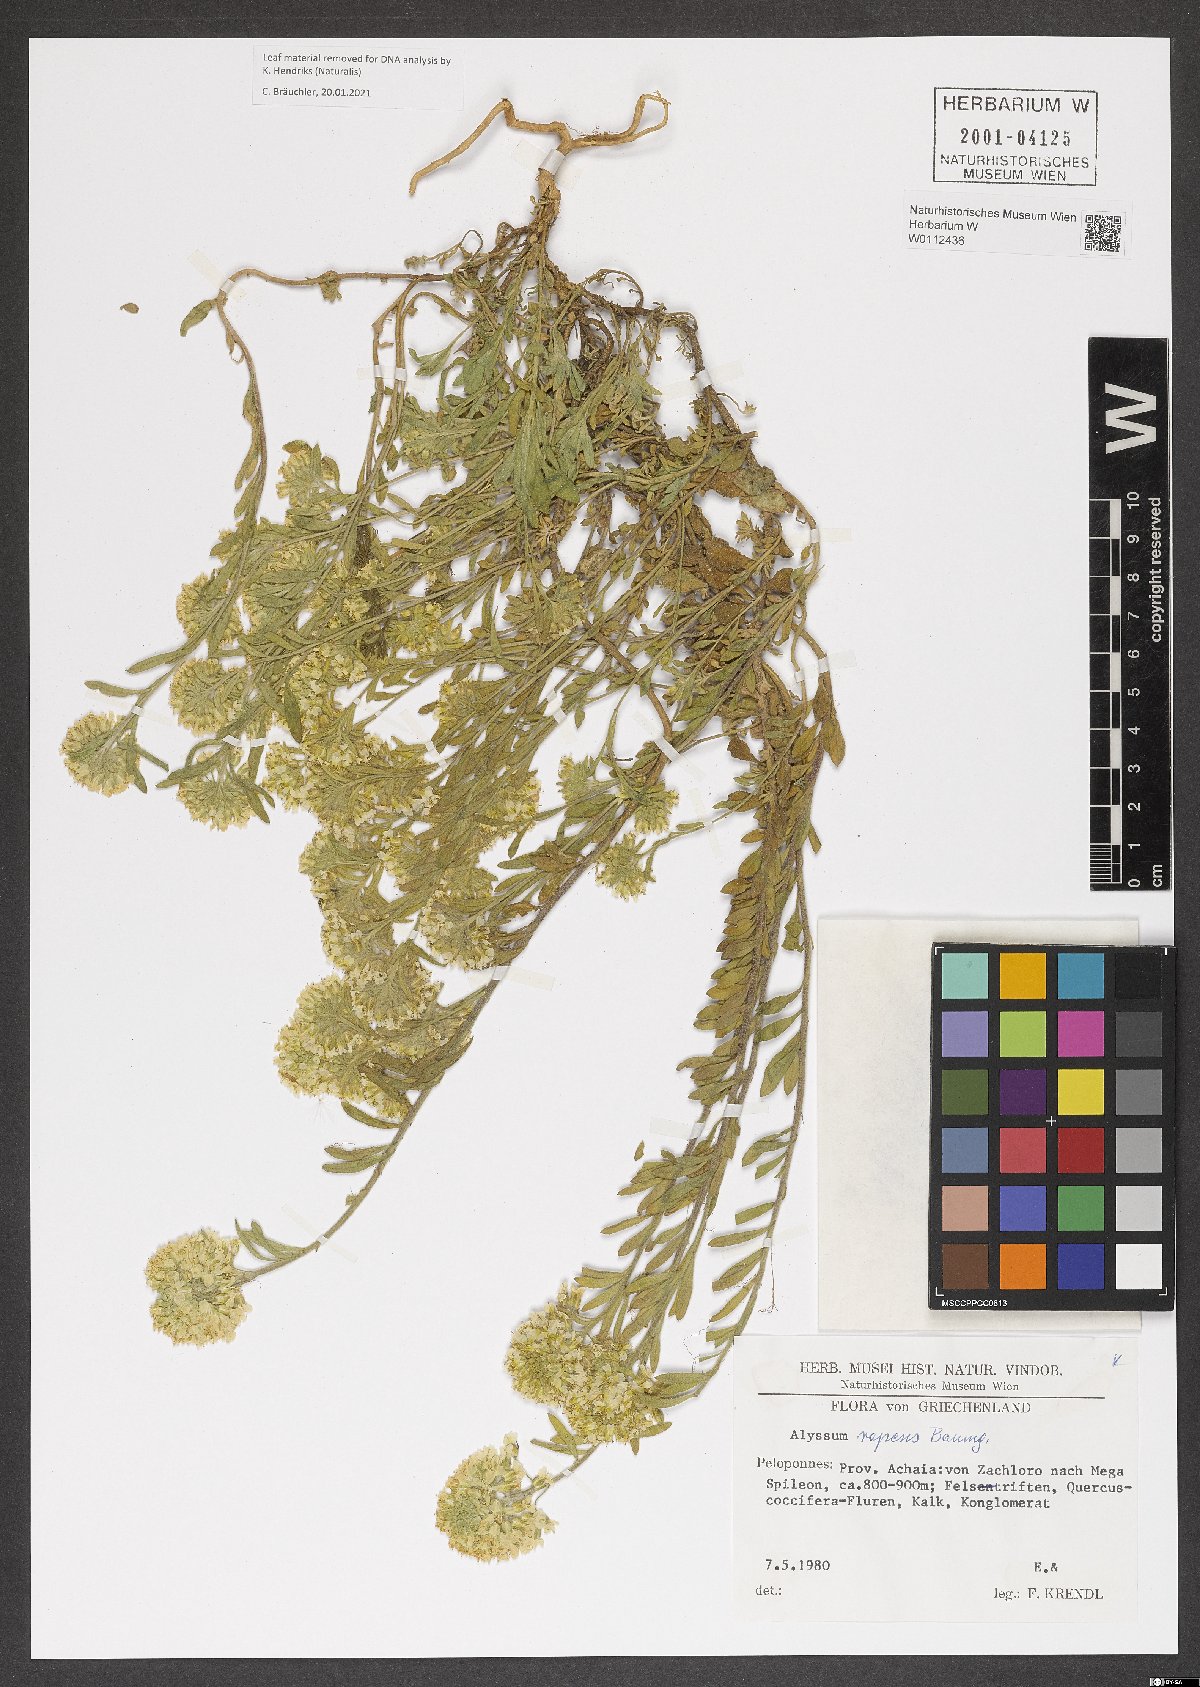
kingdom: Plantae
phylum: Tracheophyta
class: Magnoliopsida
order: Brassicales
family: Brassicaceae
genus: Alyssum
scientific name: Alyssum repens
